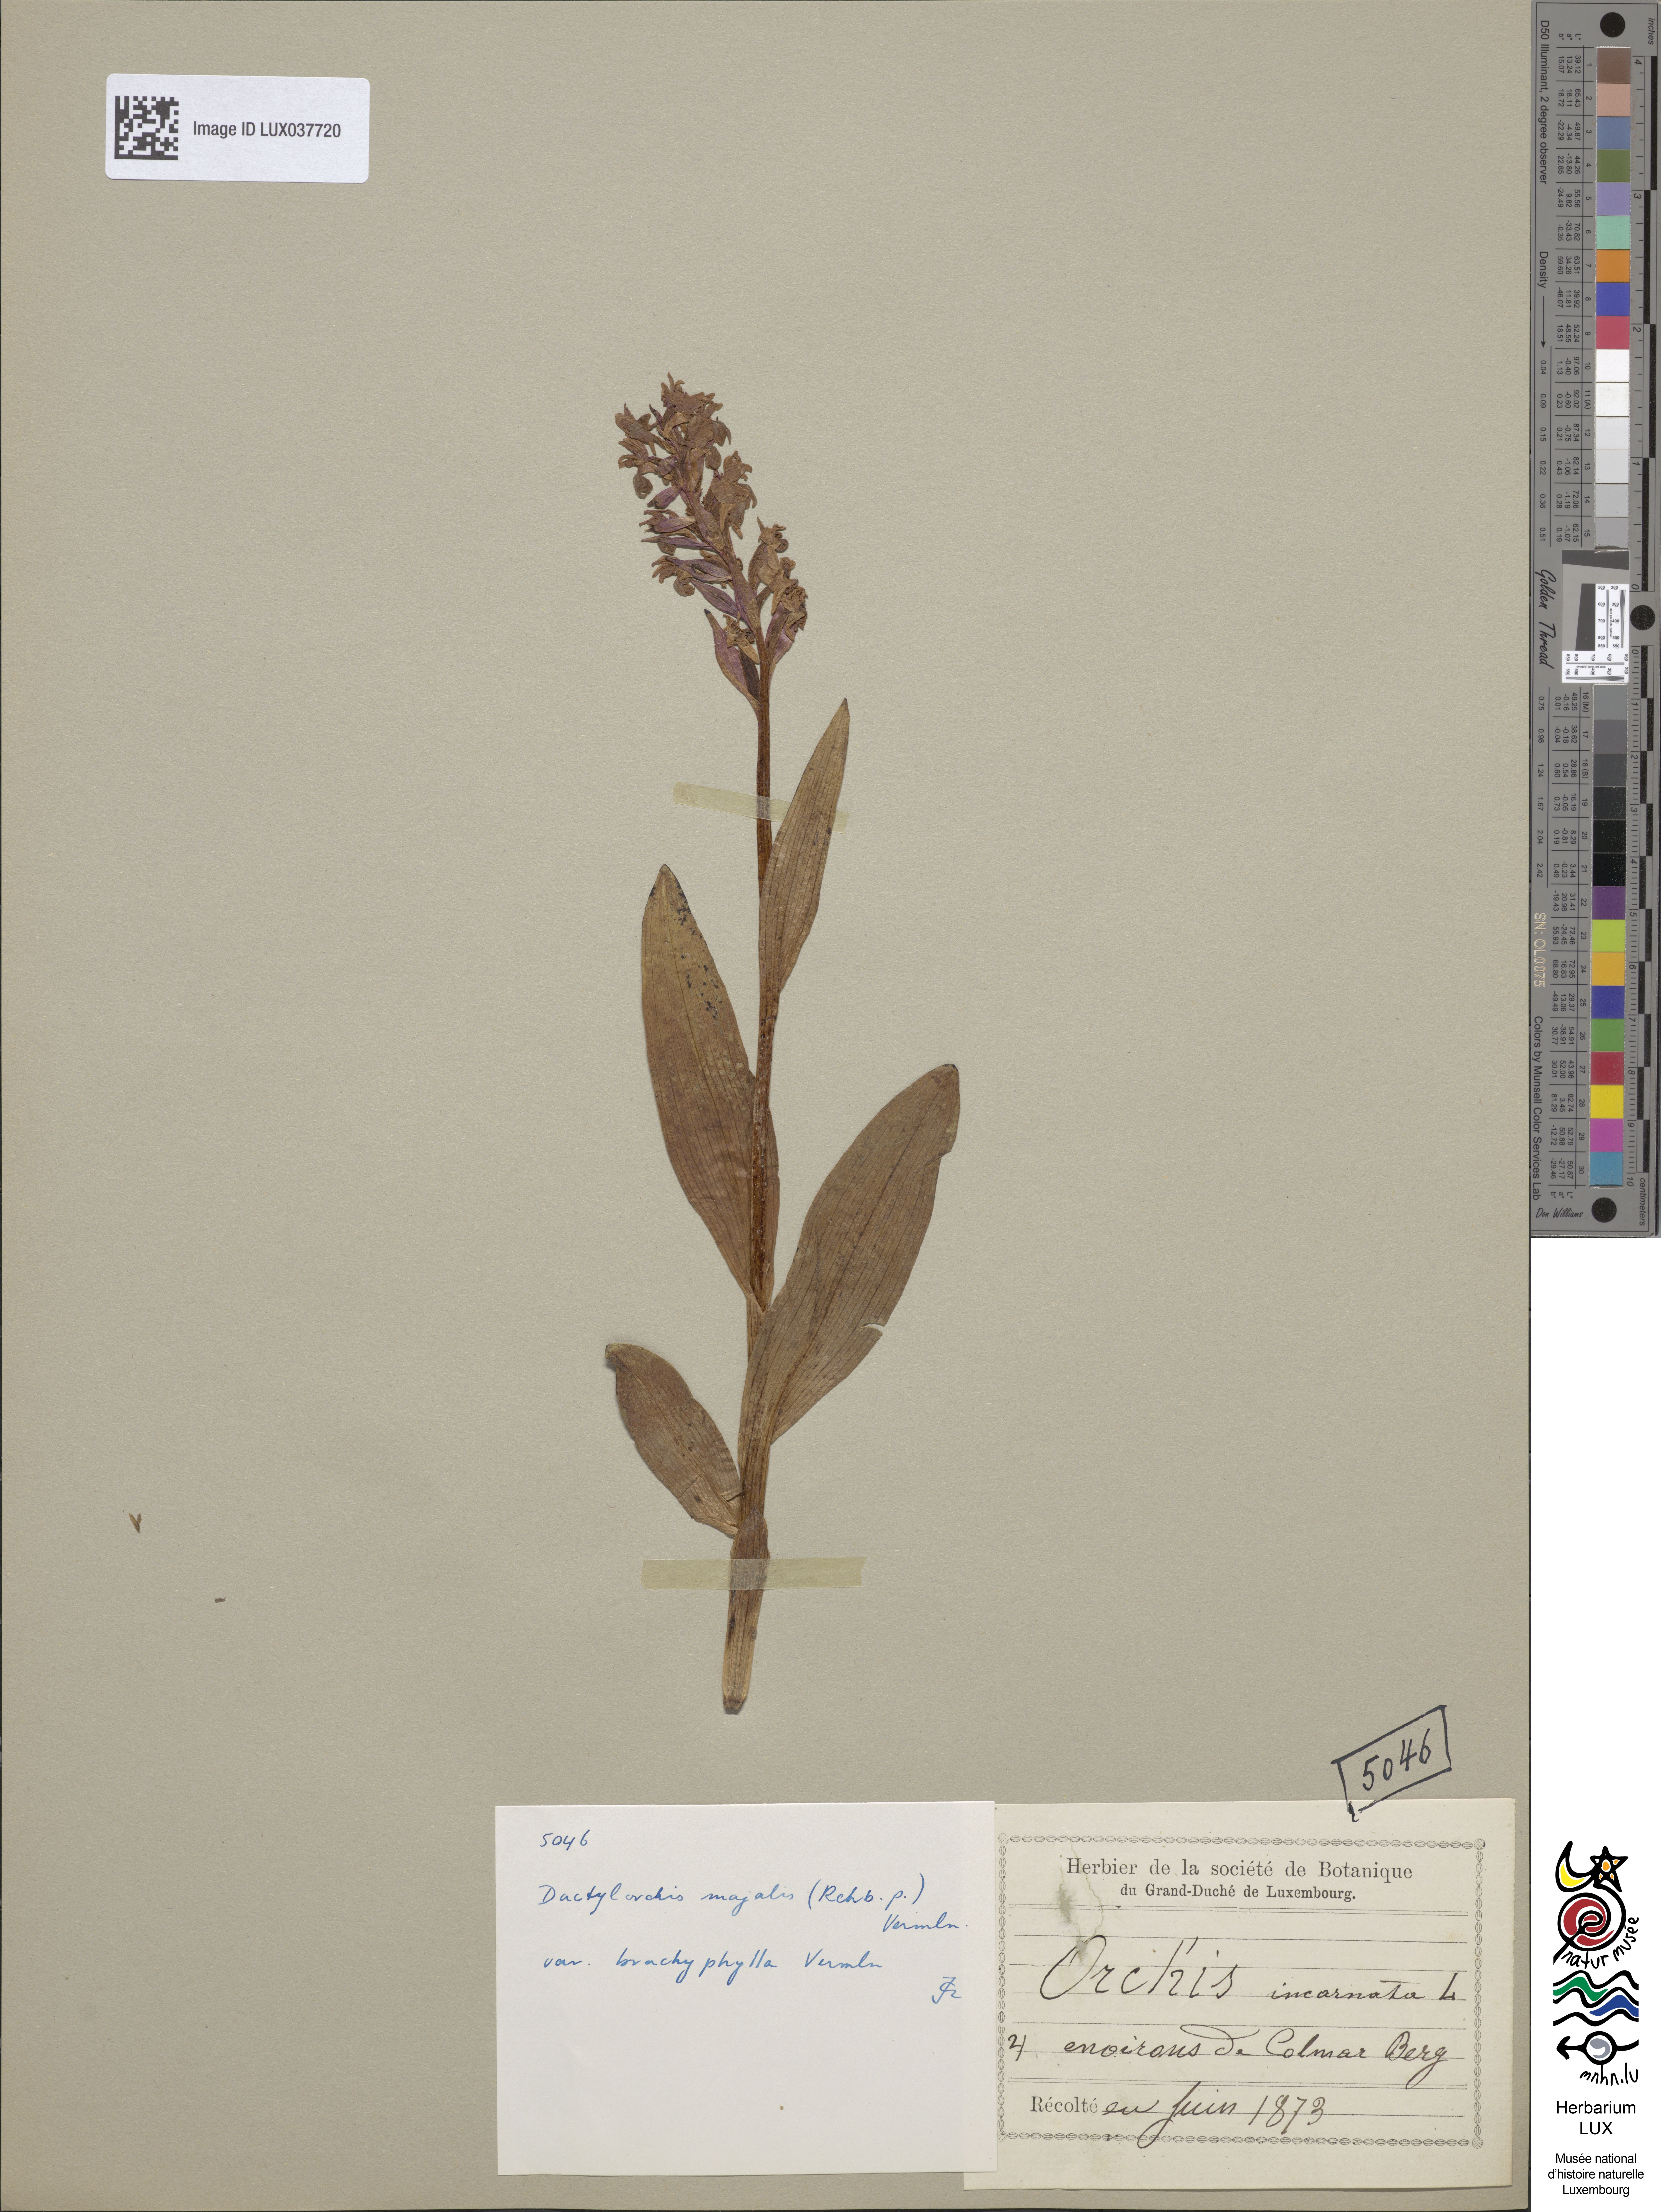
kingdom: Plantae
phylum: Tracheophyta
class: Liliopsida
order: Asparagales
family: Orchidaceae
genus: Dactylorhiza
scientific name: Dactylorhiza majalis
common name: Marsh orchid
